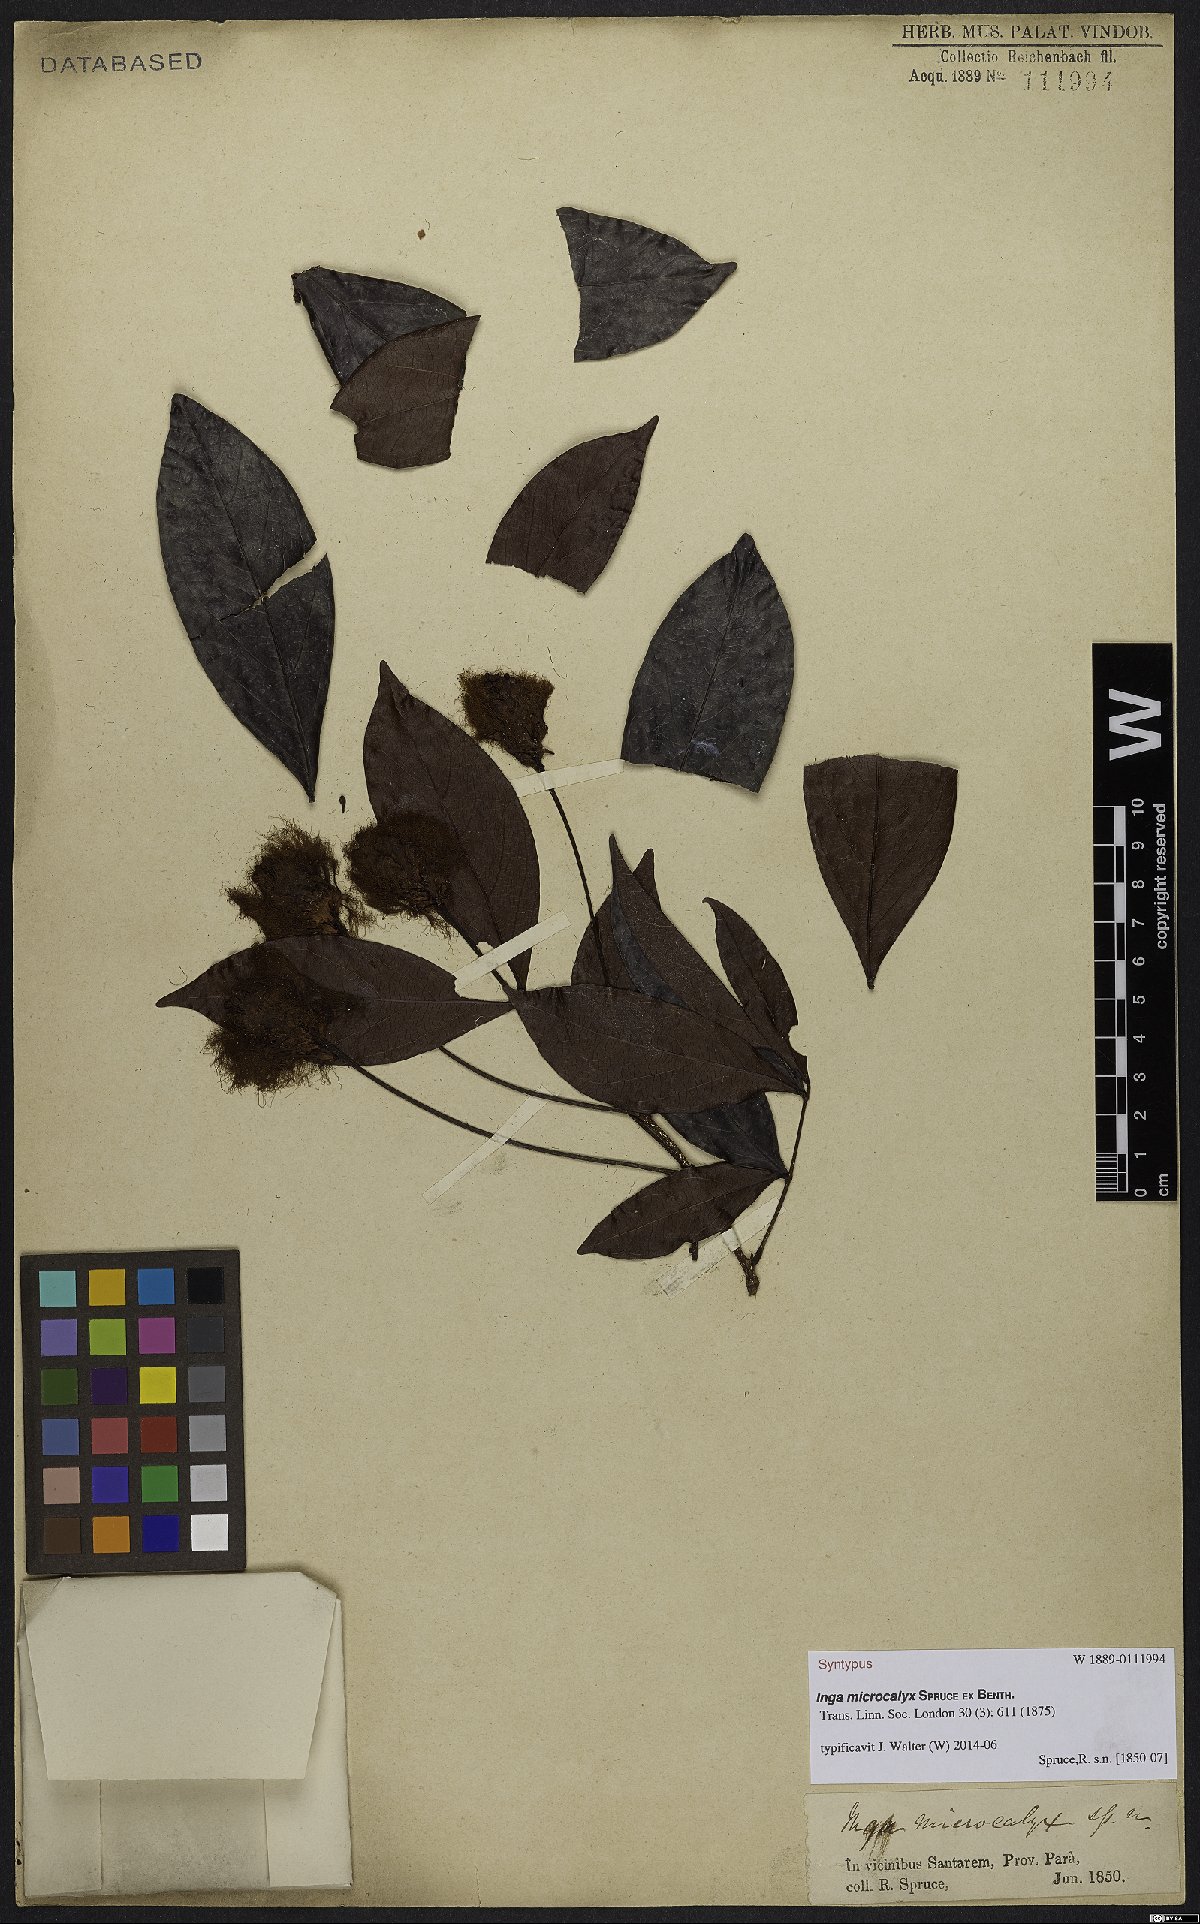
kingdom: Plantae
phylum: Tracheophyta
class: Magnoliopsida
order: Fabales
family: Fabaceae
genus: Inga
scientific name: Inga microcalyx
